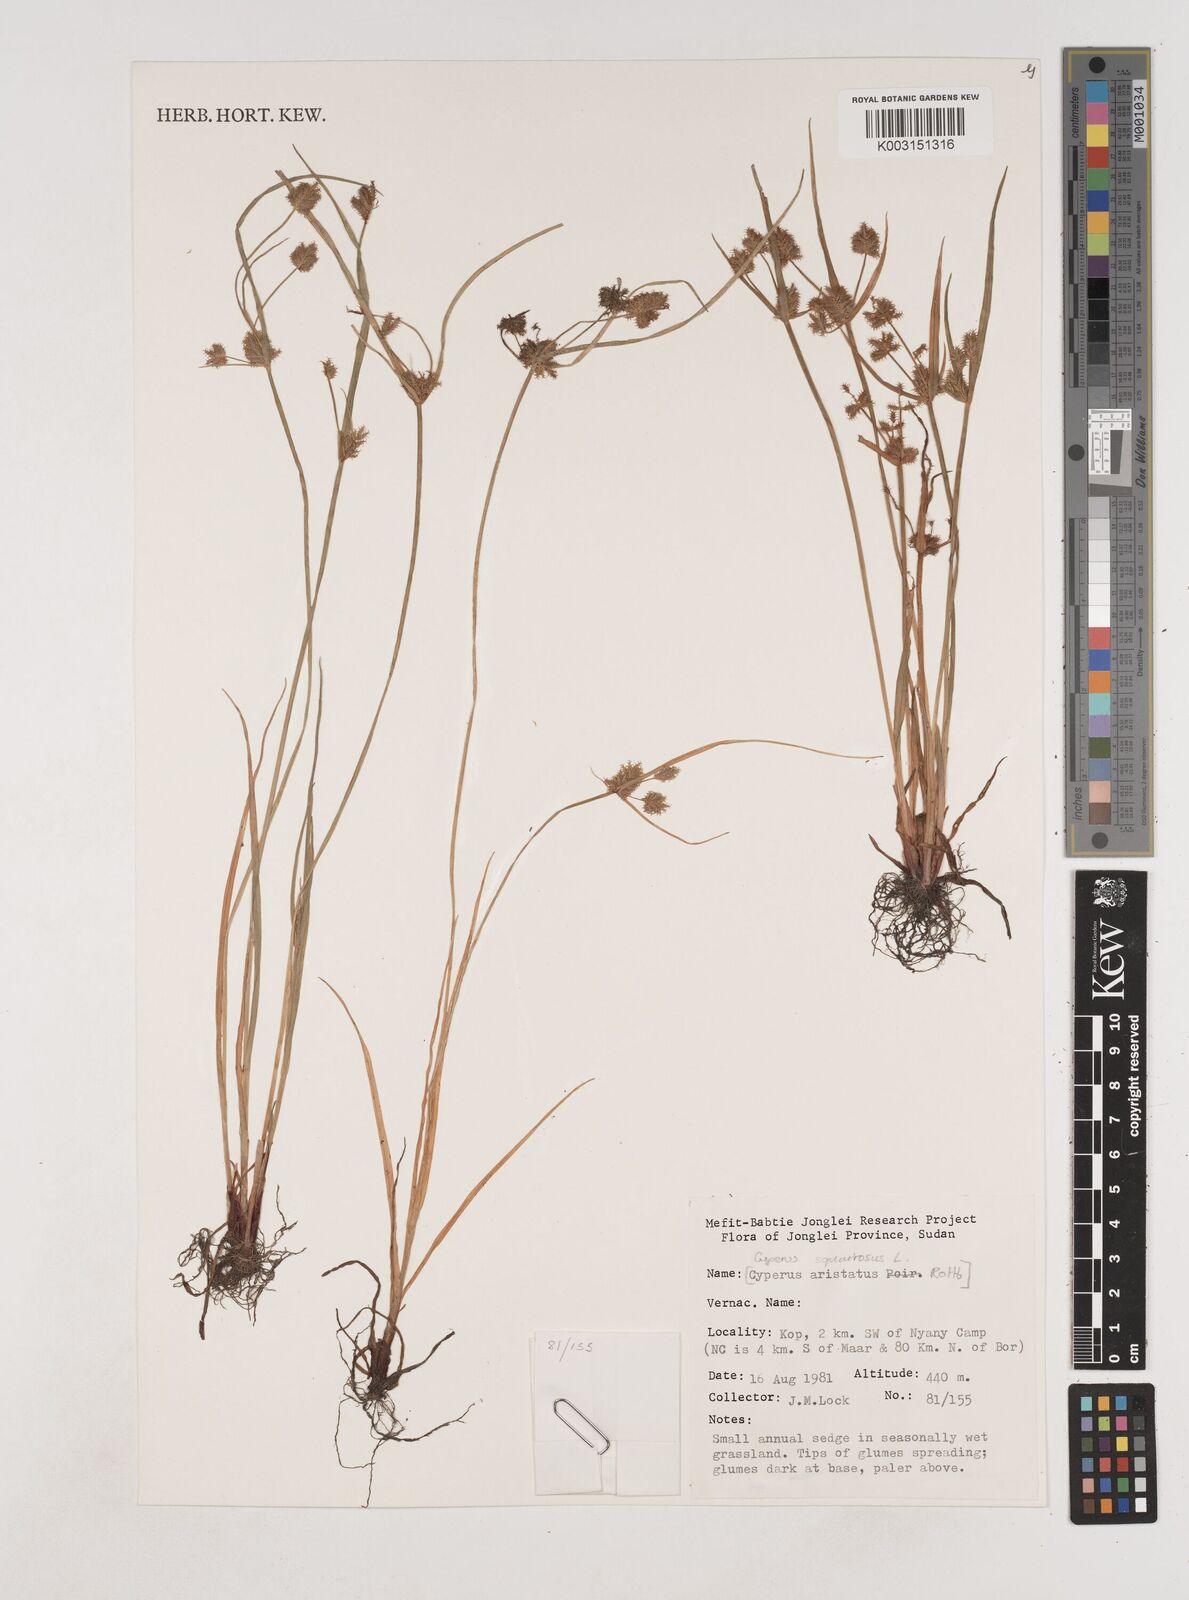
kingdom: Plantae
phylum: Tracheophyta
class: Liliopsida
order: Poales
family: Cyperaceae
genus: Cyperus
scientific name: Cyperus squarrosus
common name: Awned cyperus
